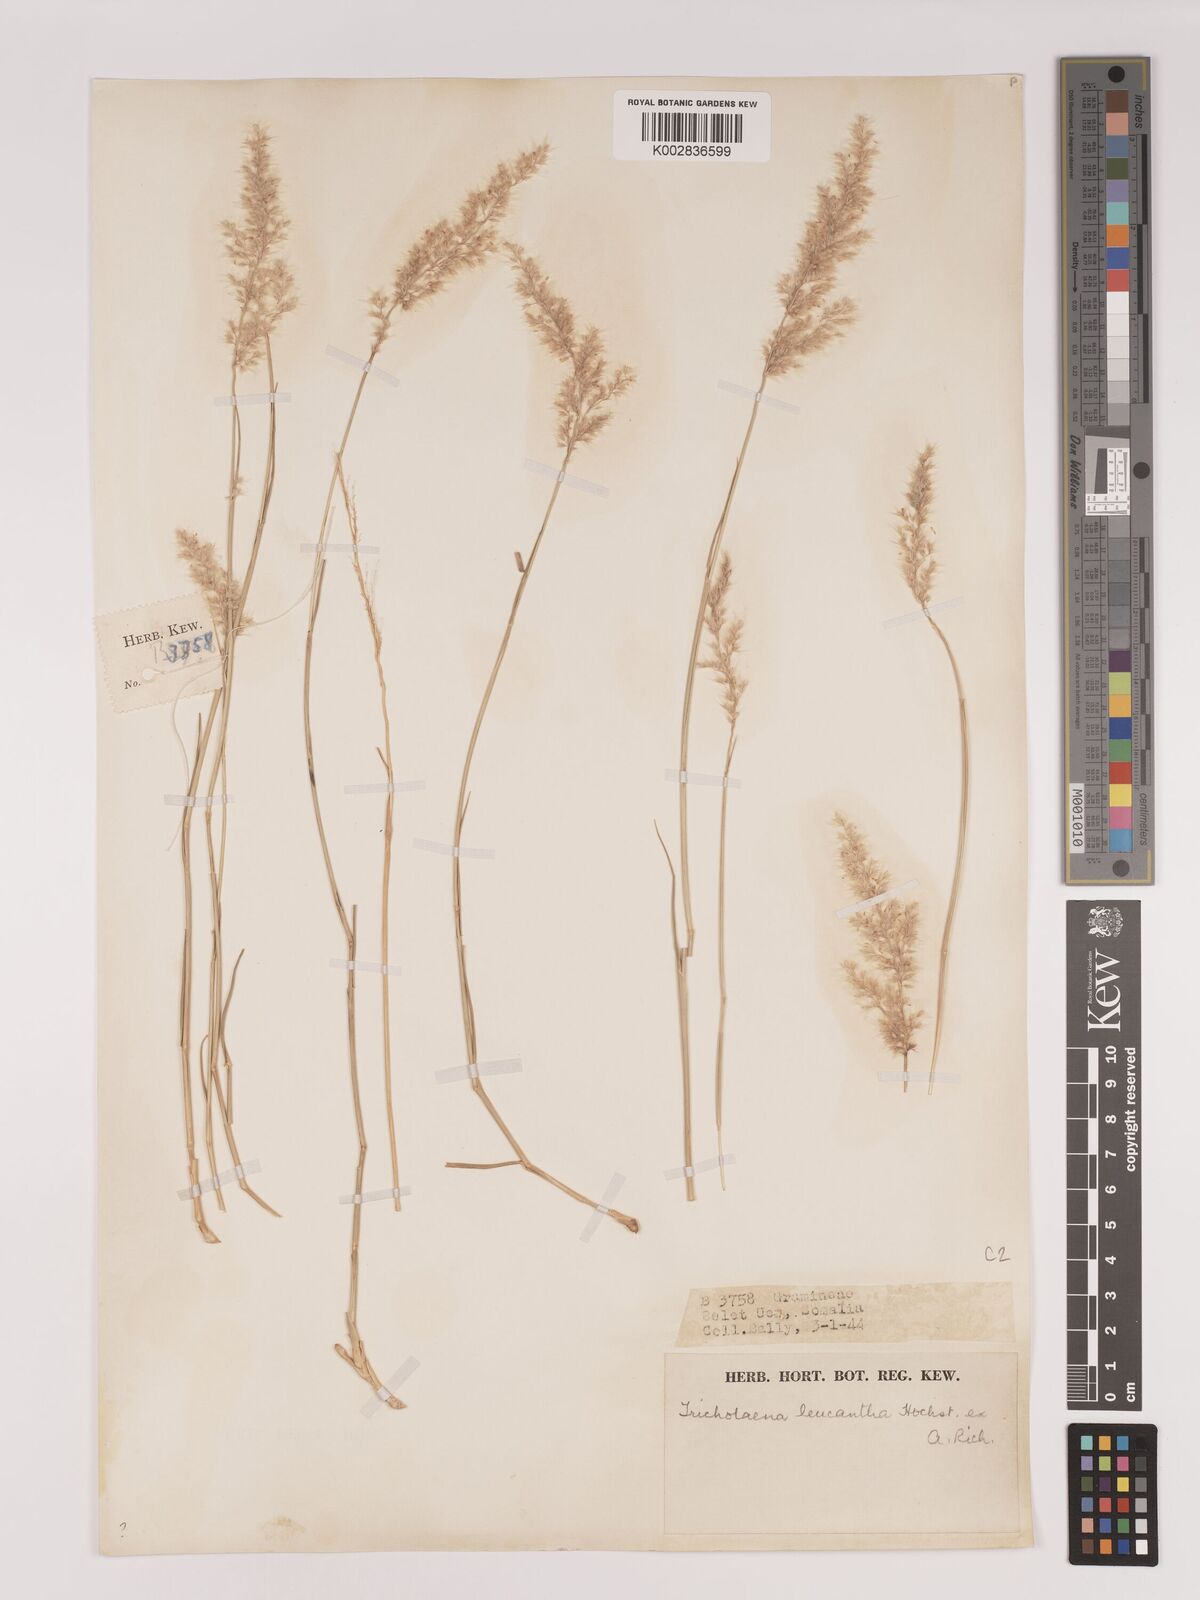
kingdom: Plantae
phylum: Tracheophyta
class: Liliopsida
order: Poales
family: Poaceae
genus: Tricholaena
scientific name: Tricholaena teneriffae
